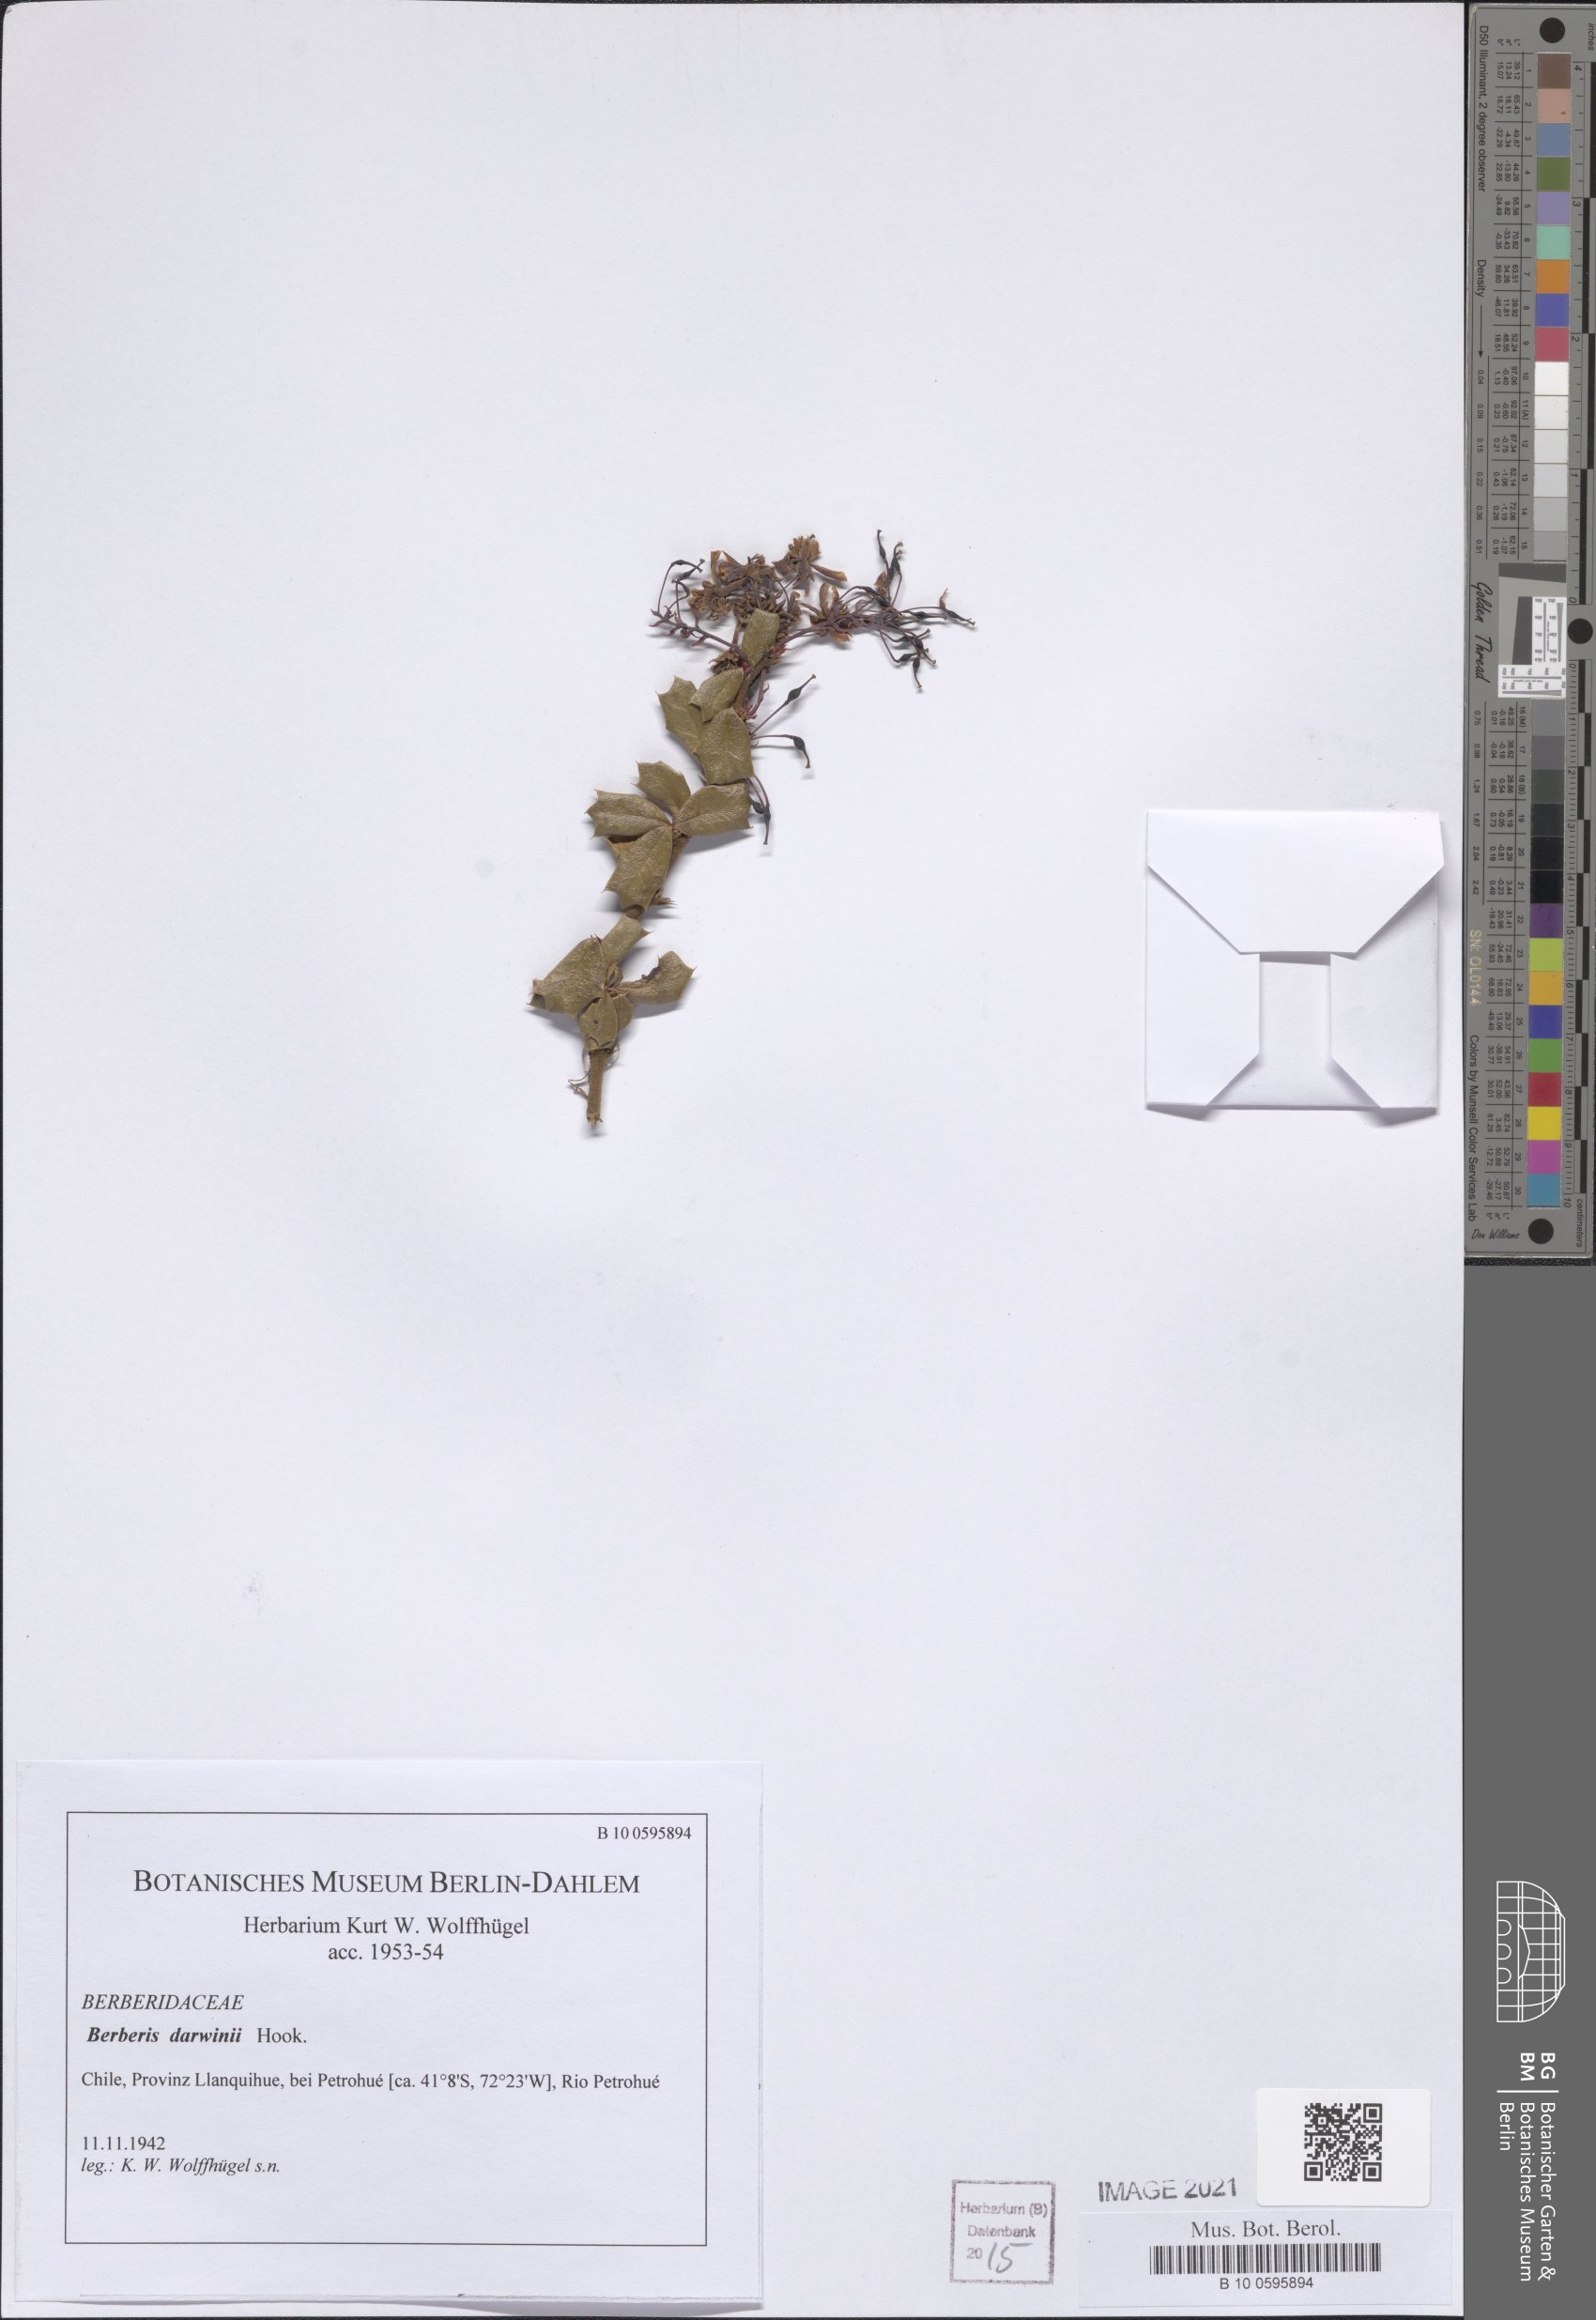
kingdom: Plantae
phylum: Tracheophyta
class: Magnoliopsida
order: Ranunculales
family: Berberidaceae
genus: Berberis
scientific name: Berberis darwinii
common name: Darwin's barberry
